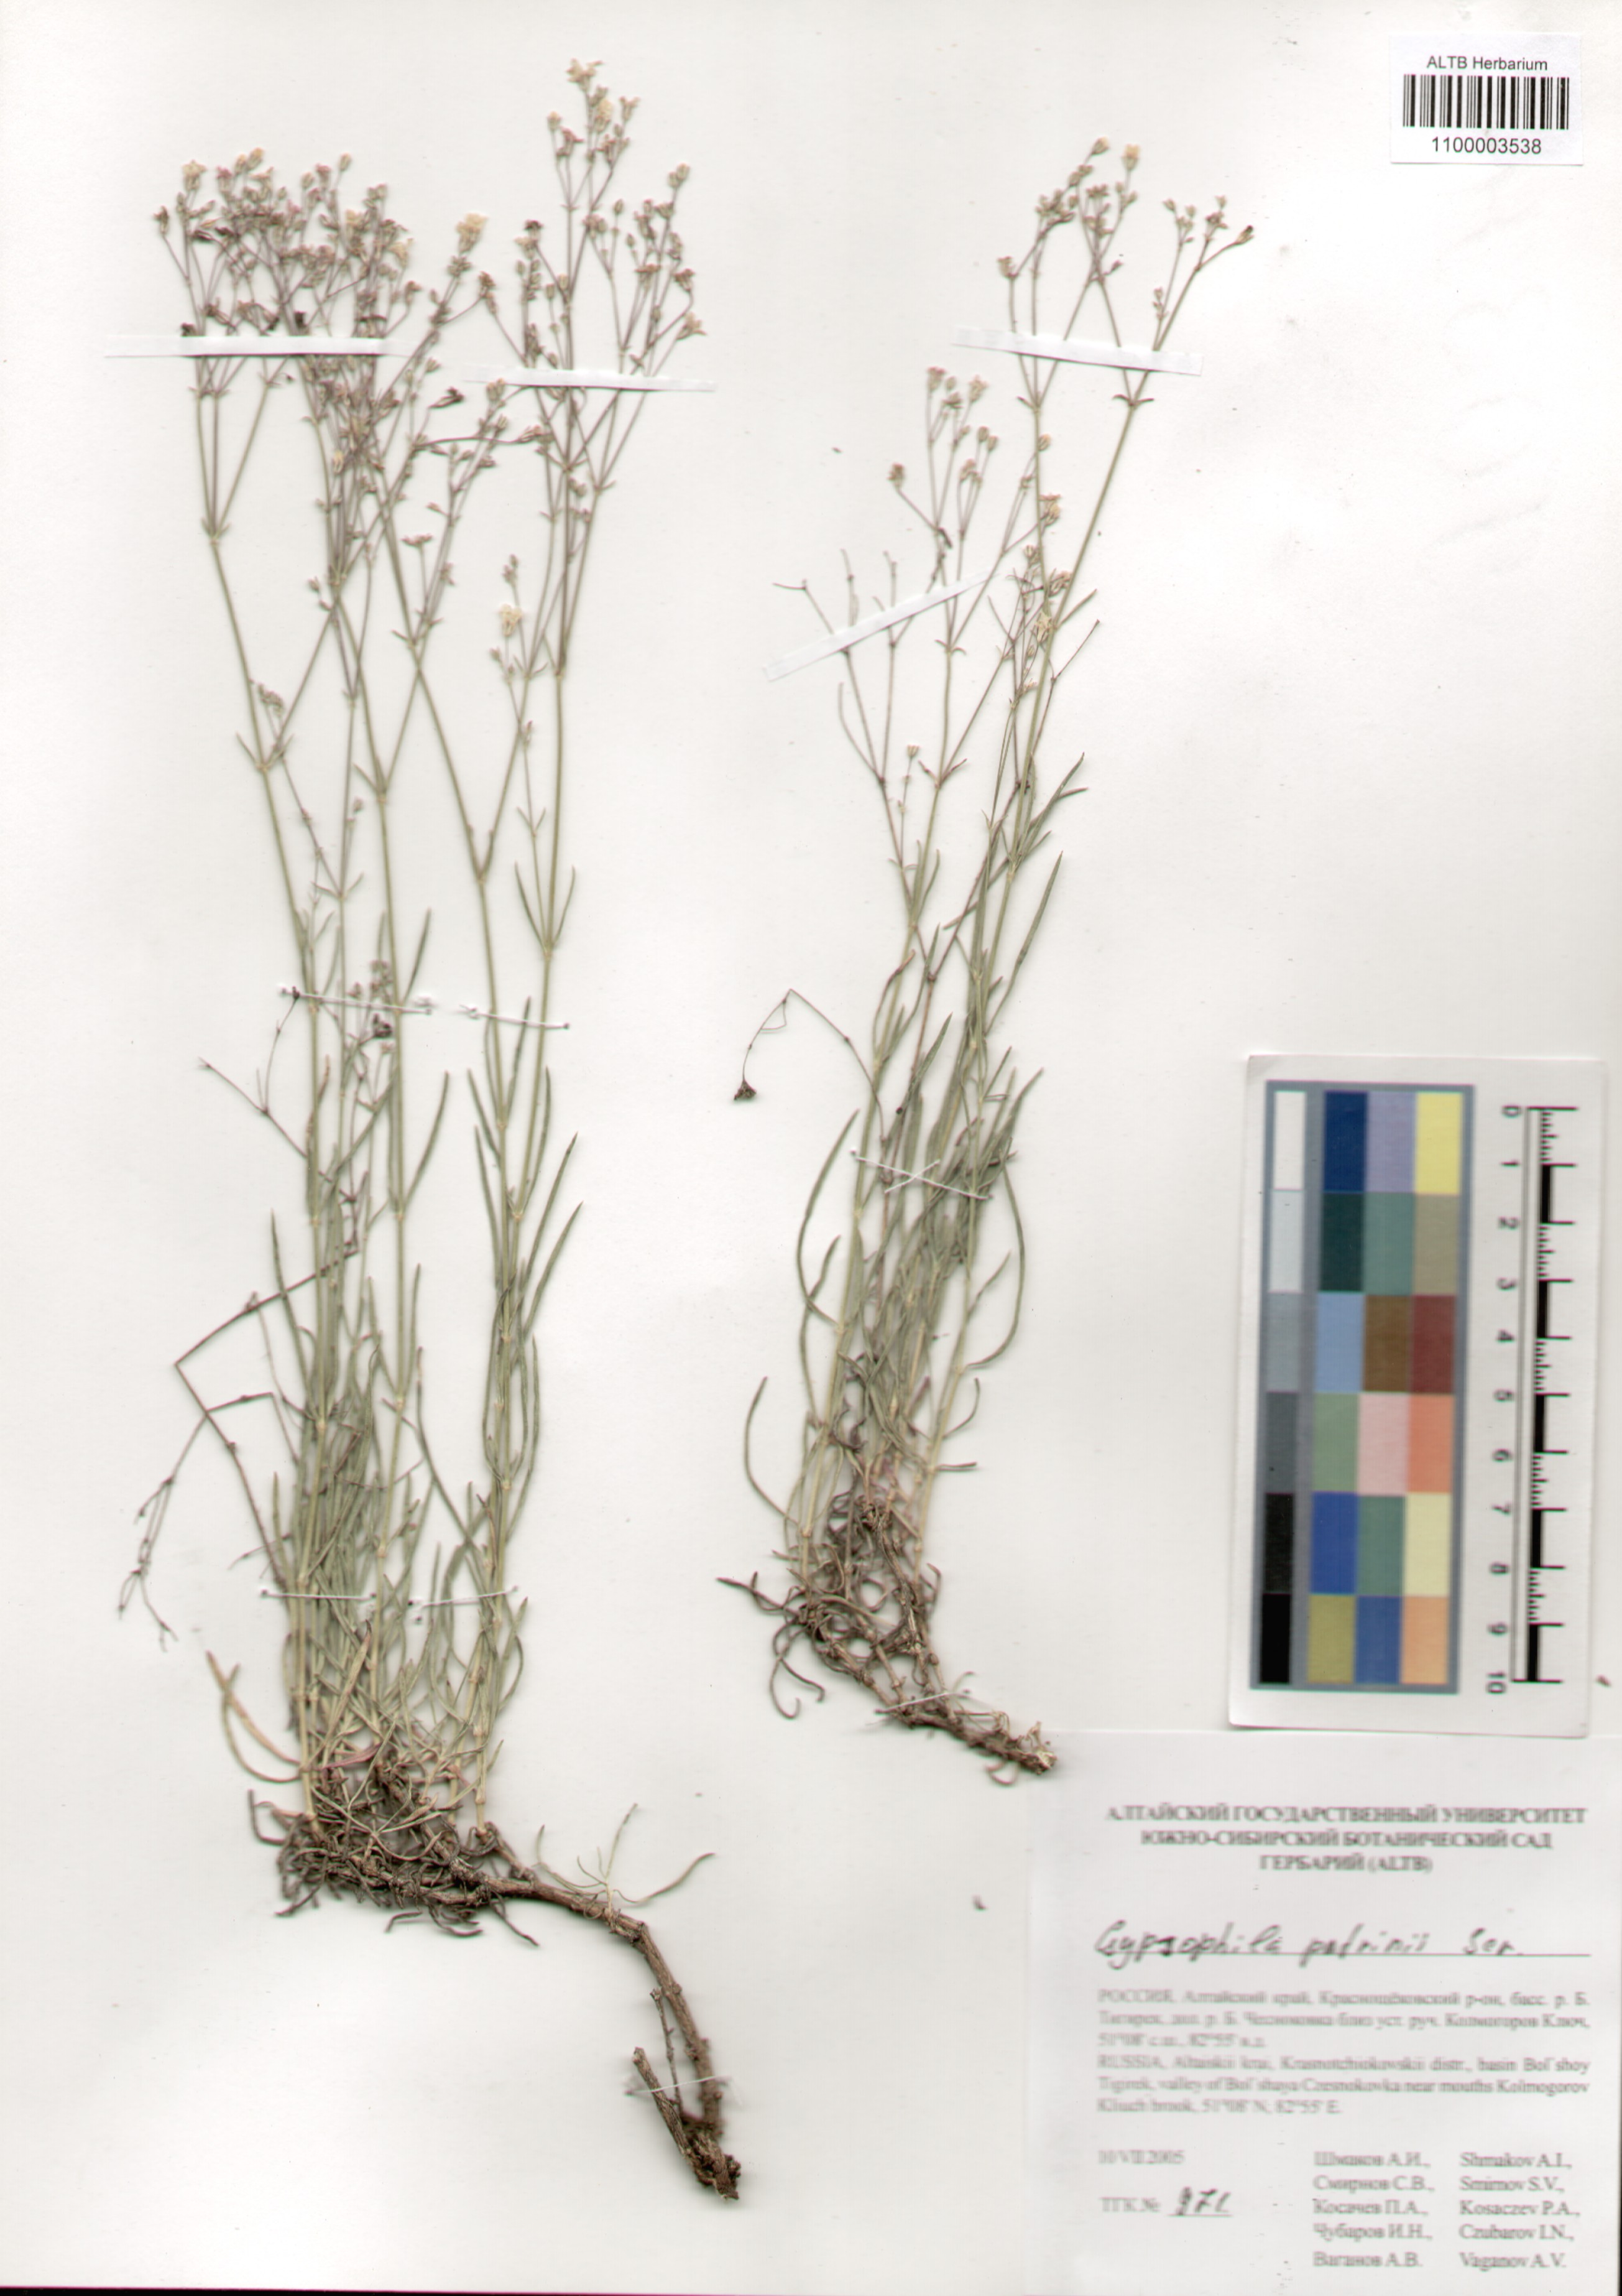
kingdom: Plantae
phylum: Tracheophyta
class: Magnoliopsida
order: Caryophyllales
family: Caryophyllaceae
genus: Gypsophila
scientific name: Gypsophila patrinii
